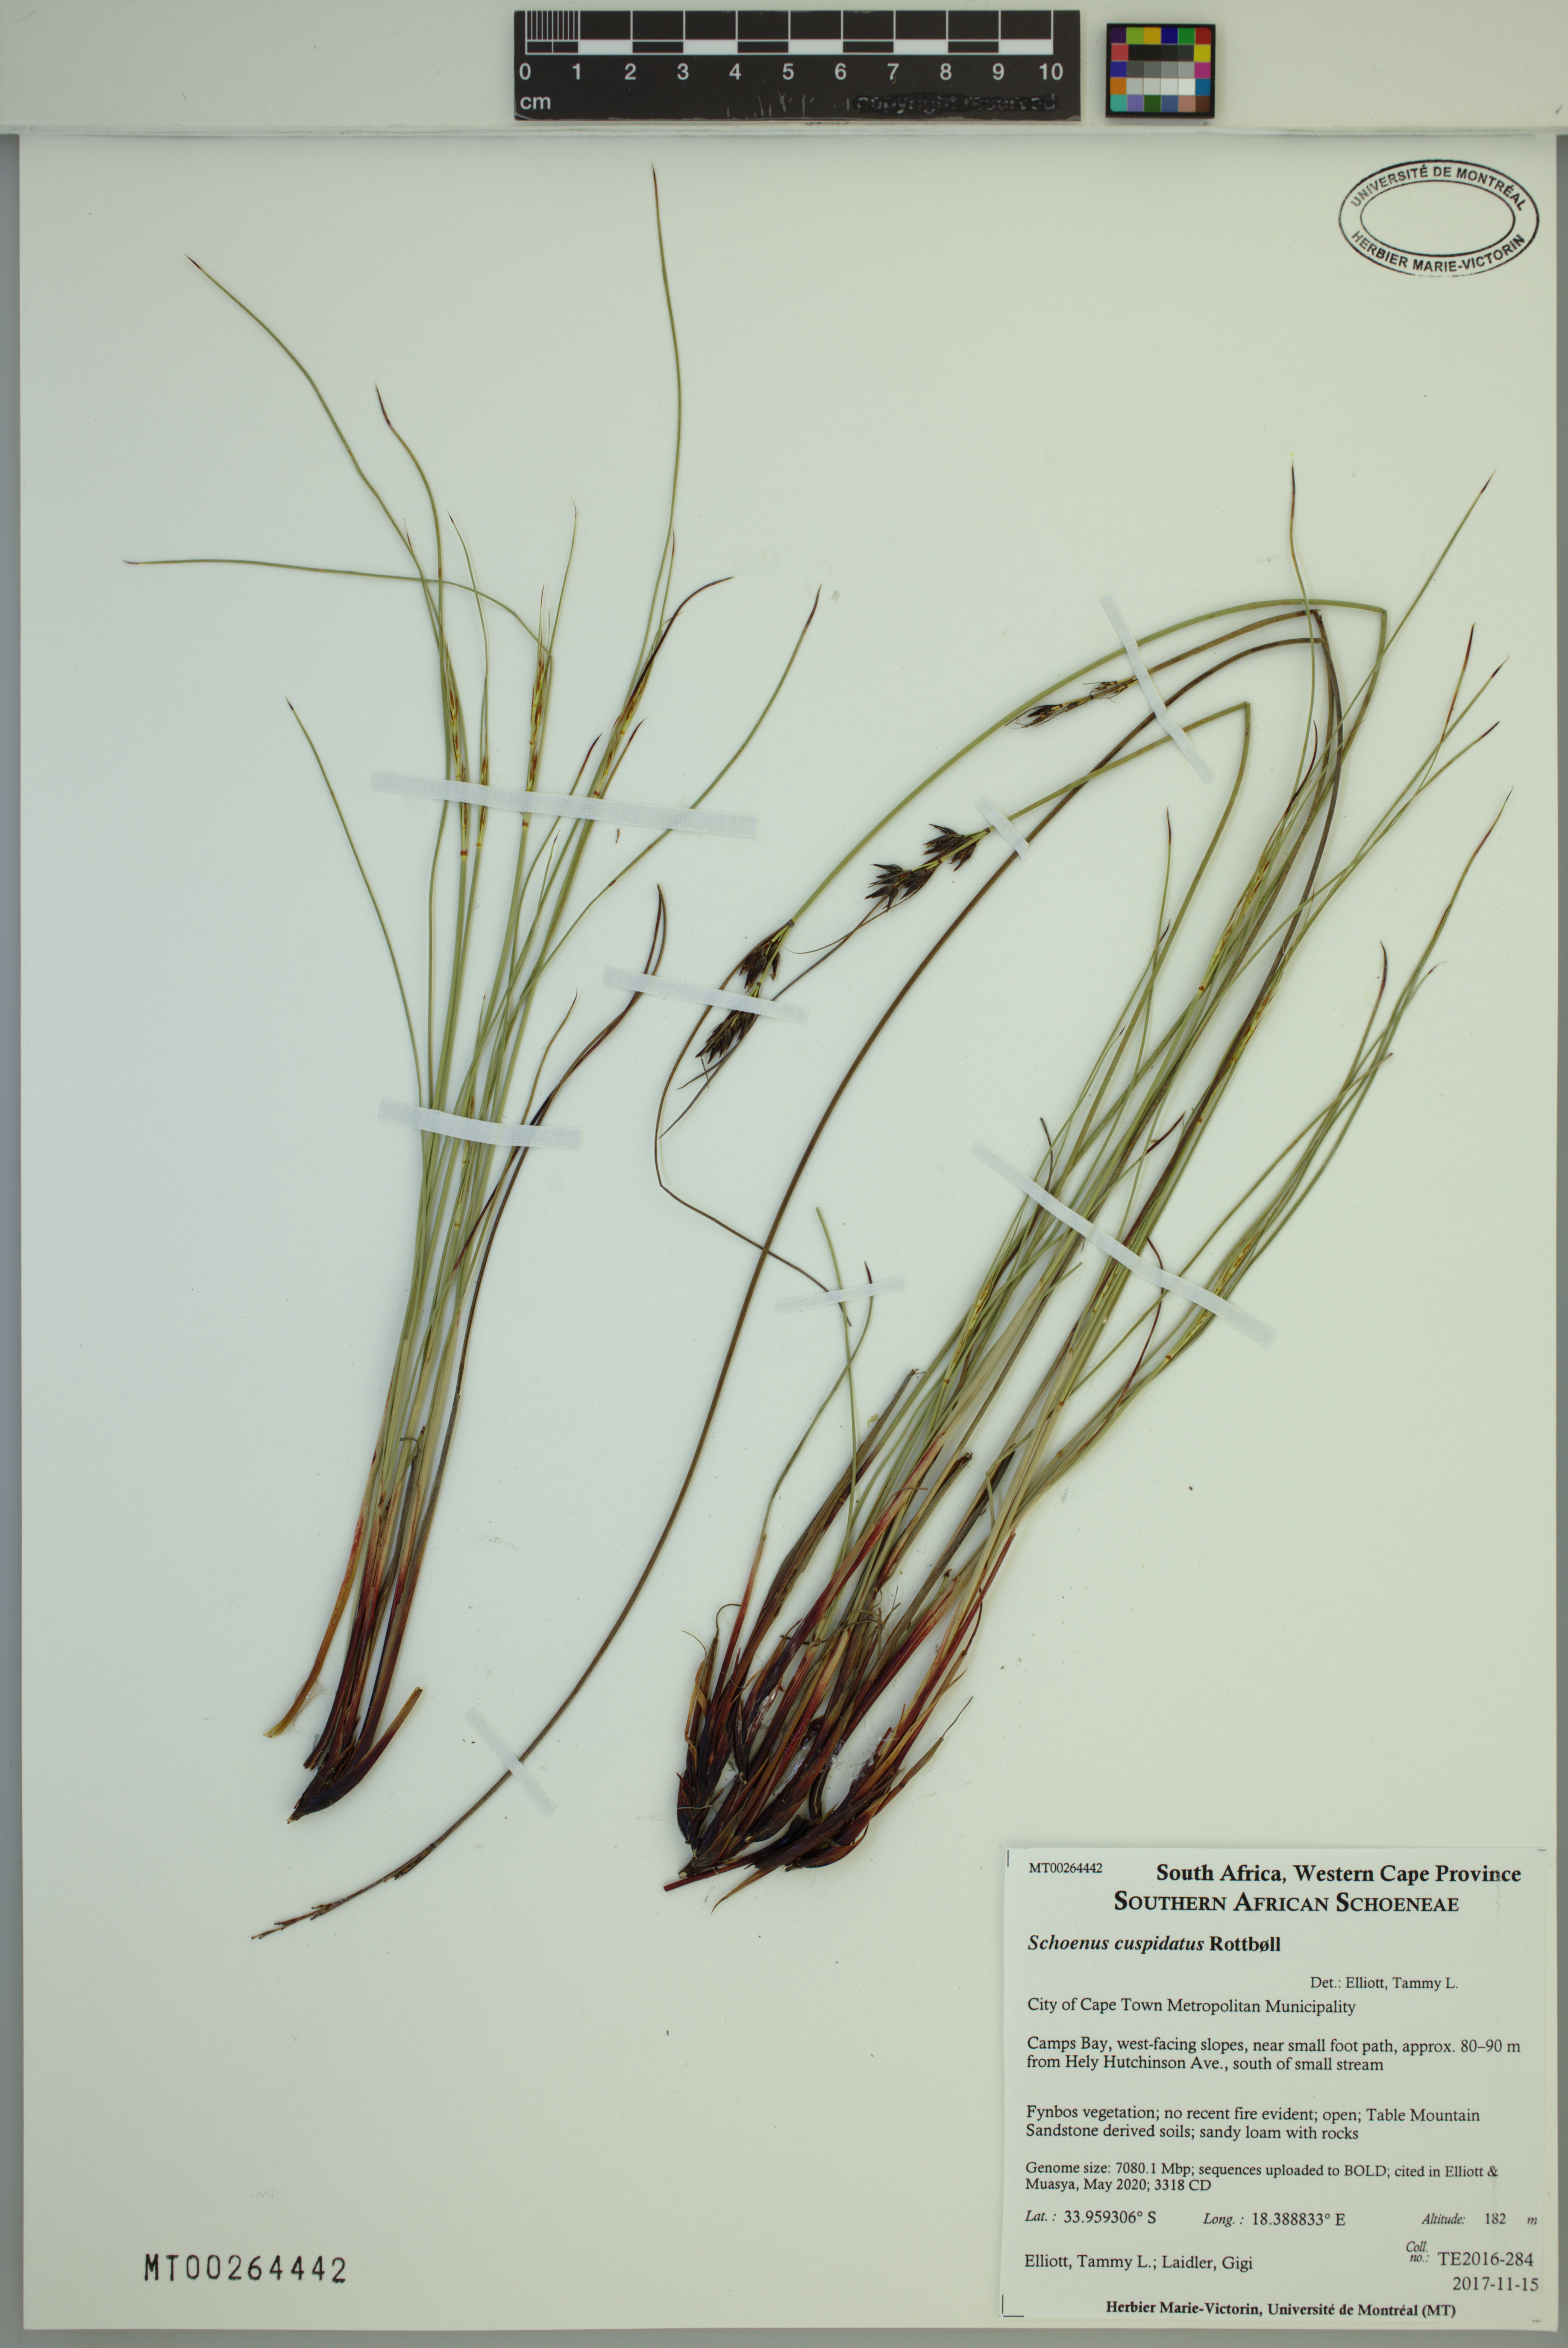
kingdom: Plantae
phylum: Tracheophyta
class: Liliopsida
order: Poales
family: Cyperaceae
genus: Schoenus
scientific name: Schoenus cuspidatus
